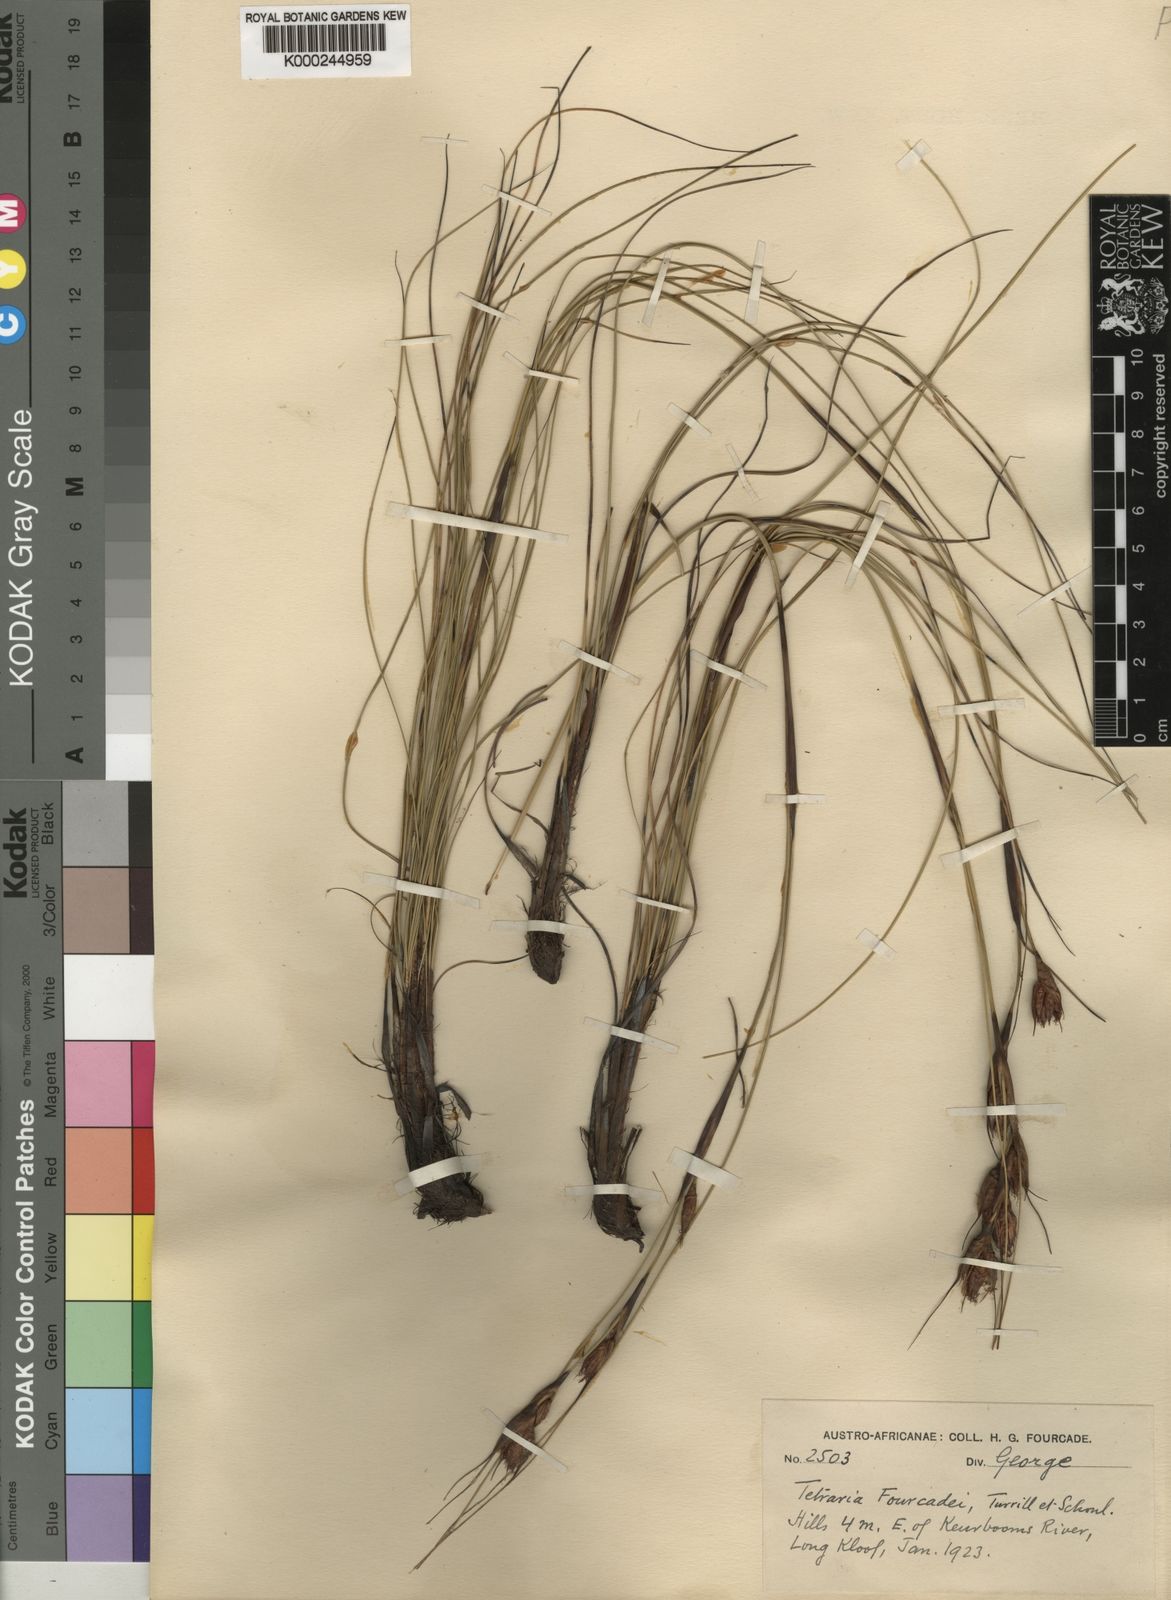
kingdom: Plantae
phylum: Tracheophyta
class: Liliopsida
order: Poales
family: Cyperaceae
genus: Tetraria
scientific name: Tetraria
